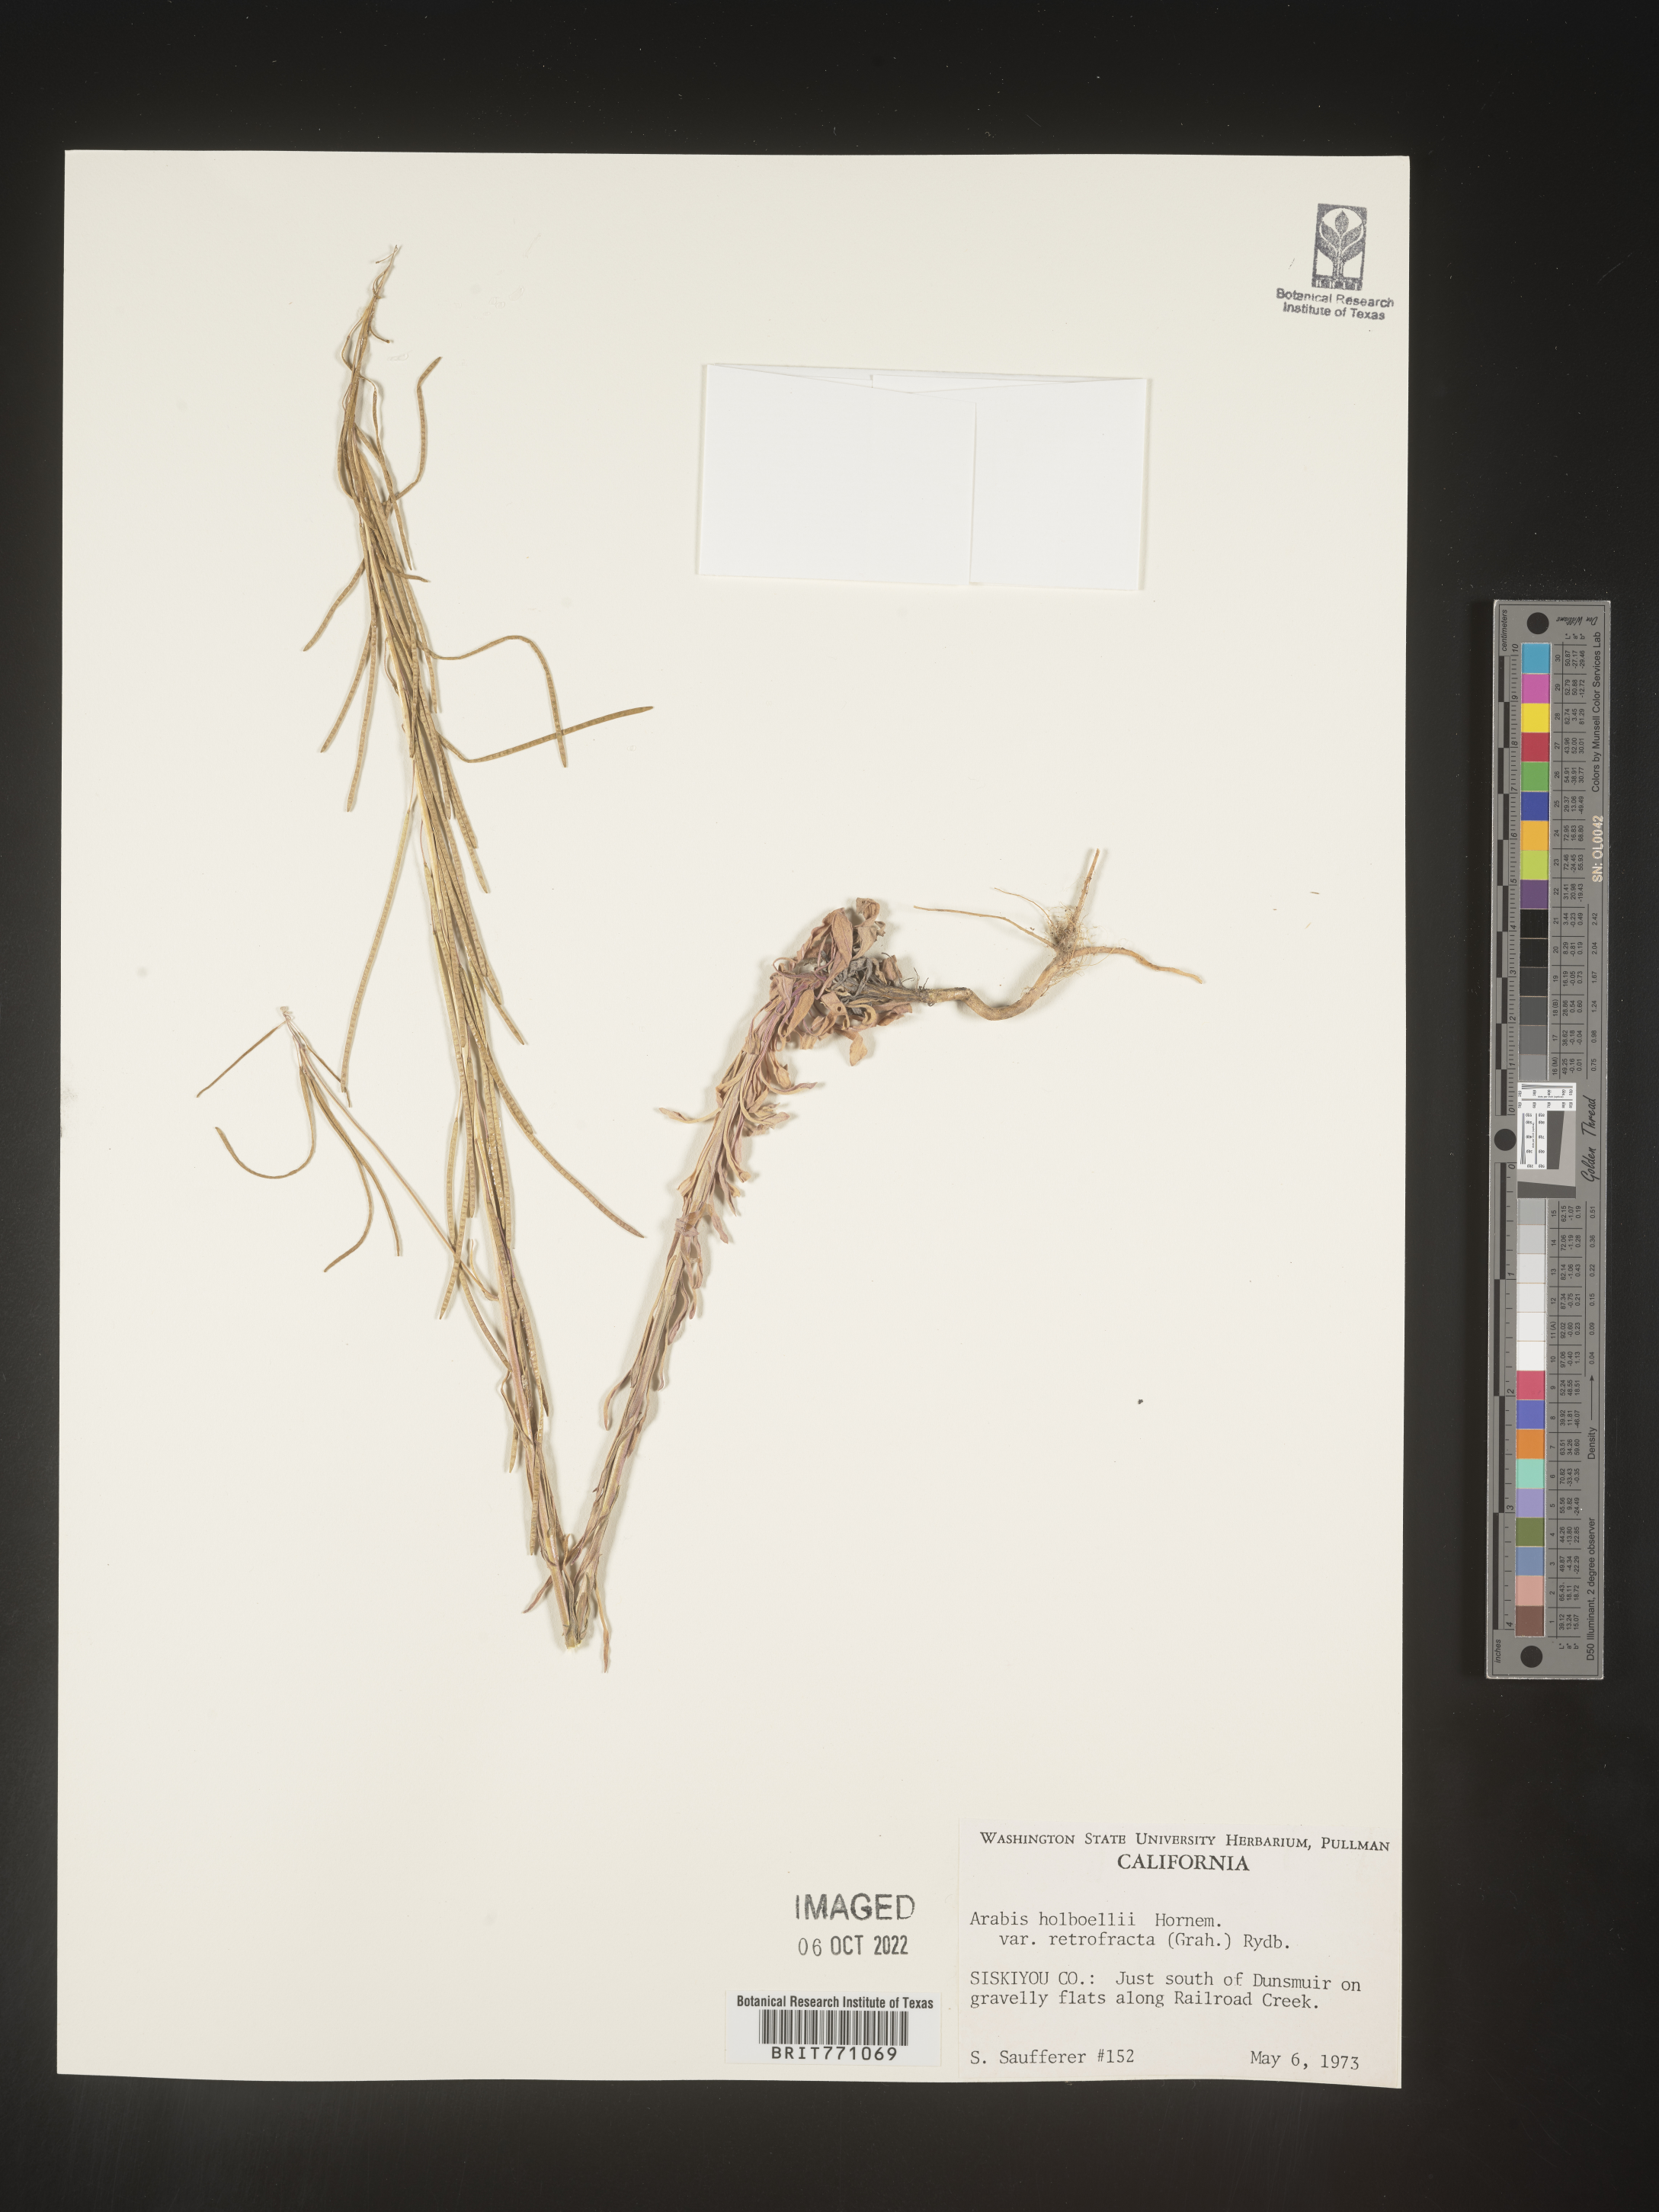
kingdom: Plantae
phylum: Tracheophyta
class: Magnoliopsida
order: Brassicales
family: Brassicaceae
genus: Boechera
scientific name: Boechera holboellii
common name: Holboell's rockcress
